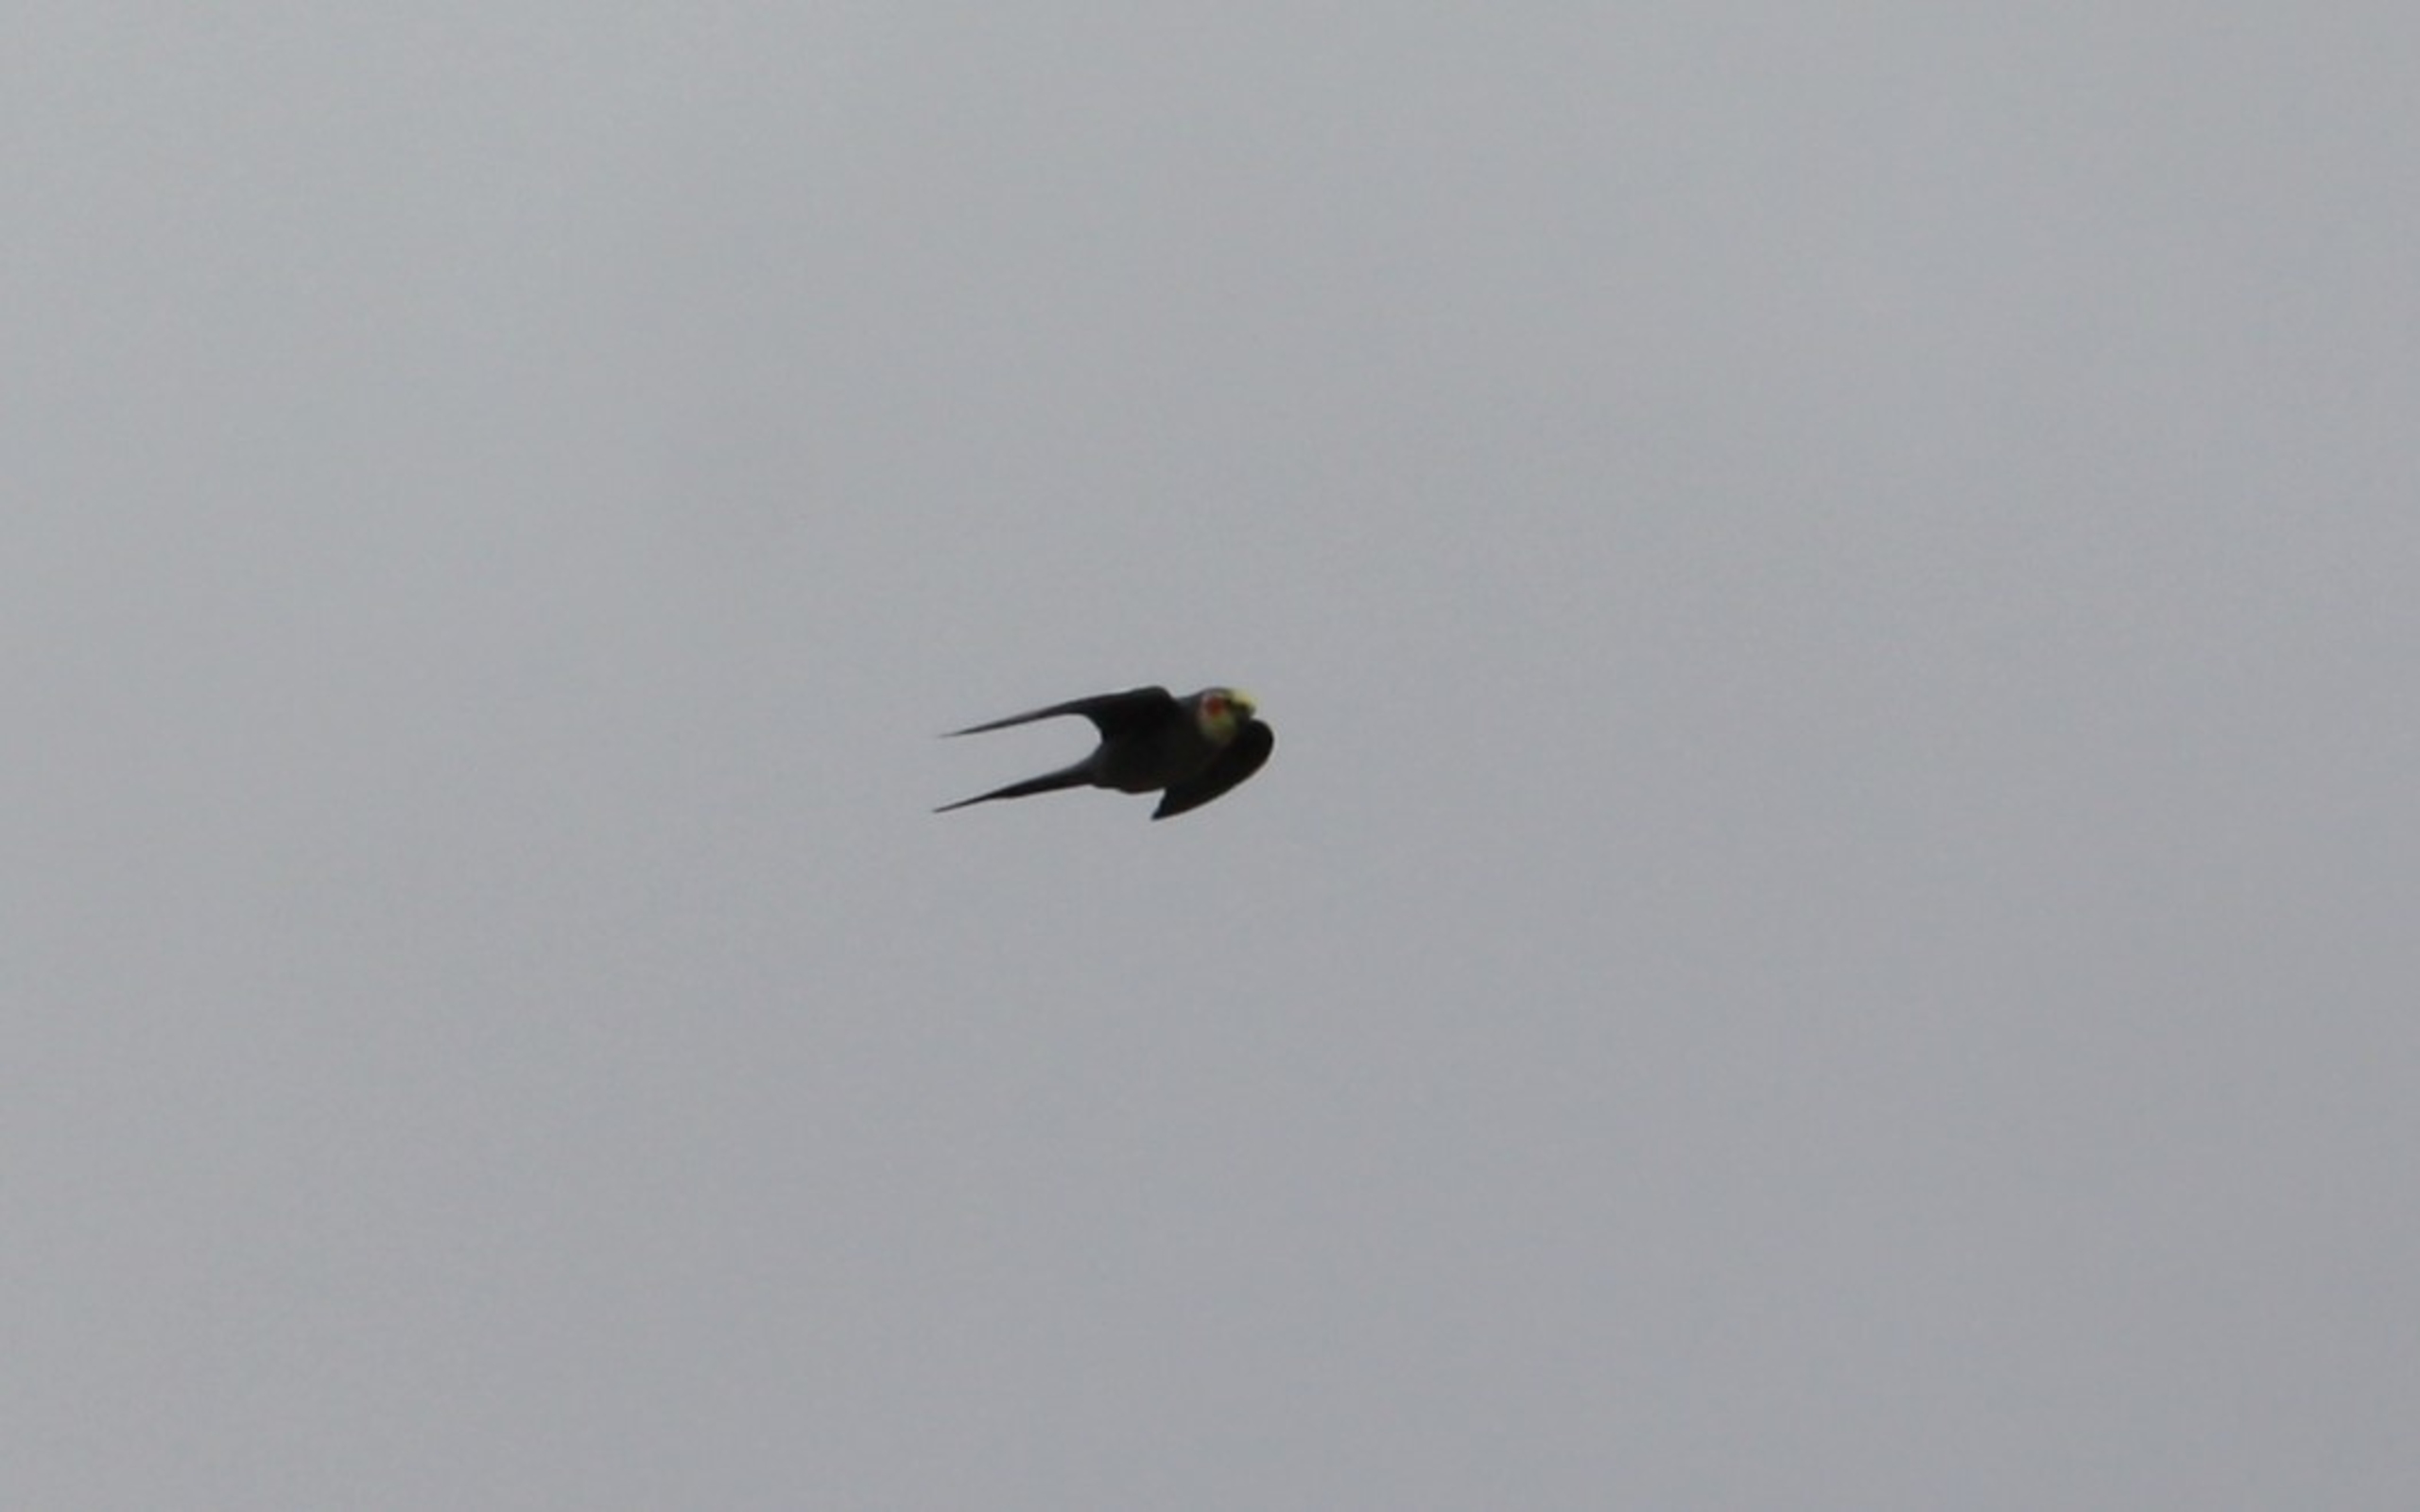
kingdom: Animalia
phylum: Chordata
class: Aves
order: Psittaciformes
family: Psittacidae
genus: Nymphicus
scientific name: Nymphicus hollandicus
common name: Nymfeparakit
